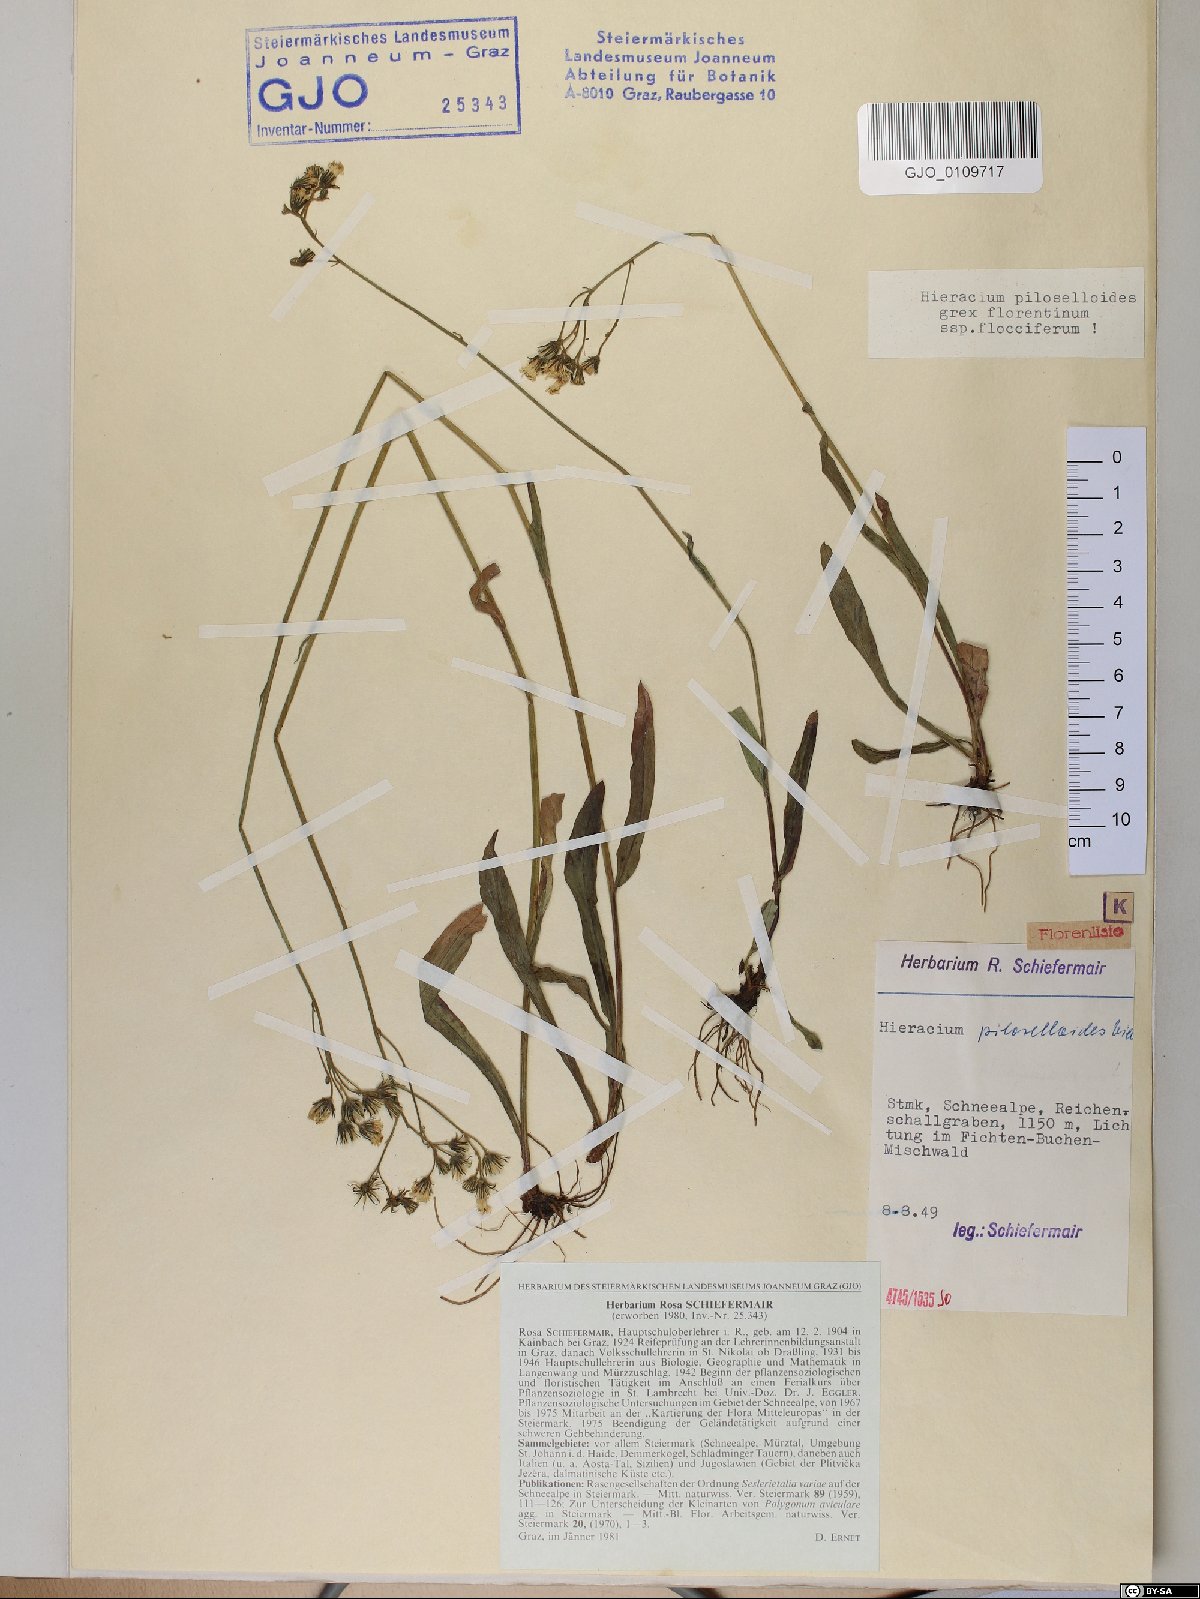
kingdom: Plantae
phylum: Tracheophyta
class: Magnoliopsida
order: Asterales
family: Asteraceae
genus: Pilosella
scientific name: Pilosella piloselloides
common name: Glaucous king-devil
